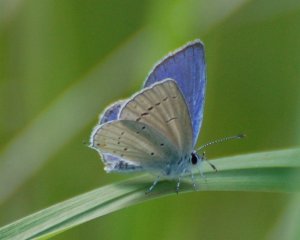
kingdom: Animalia
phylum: Arthropoda
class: Insecta
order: Lepidoptera
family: Lycaenidae
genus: Elkalyce
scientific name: Elkalyce amyntula
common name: Western Tailed-Blue
